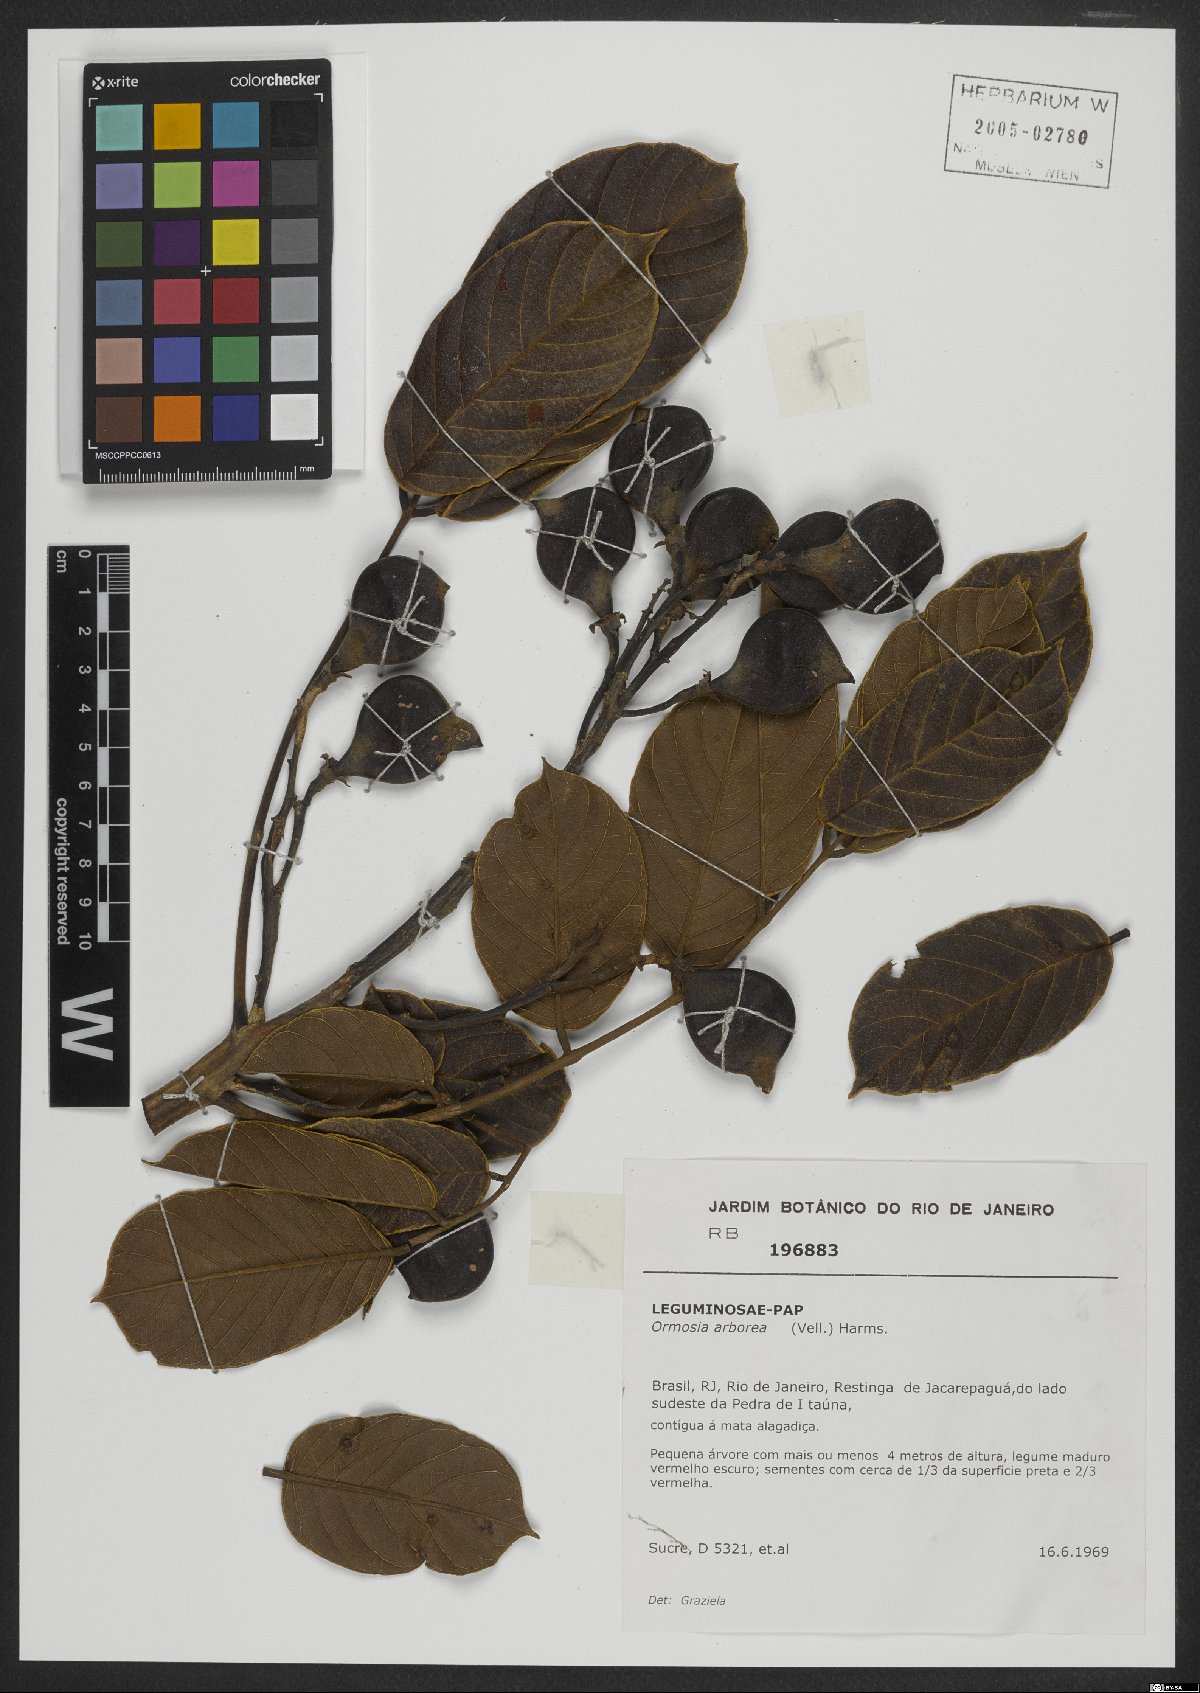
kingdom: Plantae
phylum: Tracheophyta
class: Magnoliopsida
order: Fabales
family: Fabaceae
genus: Ormosia
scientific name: Ormosia arborea
